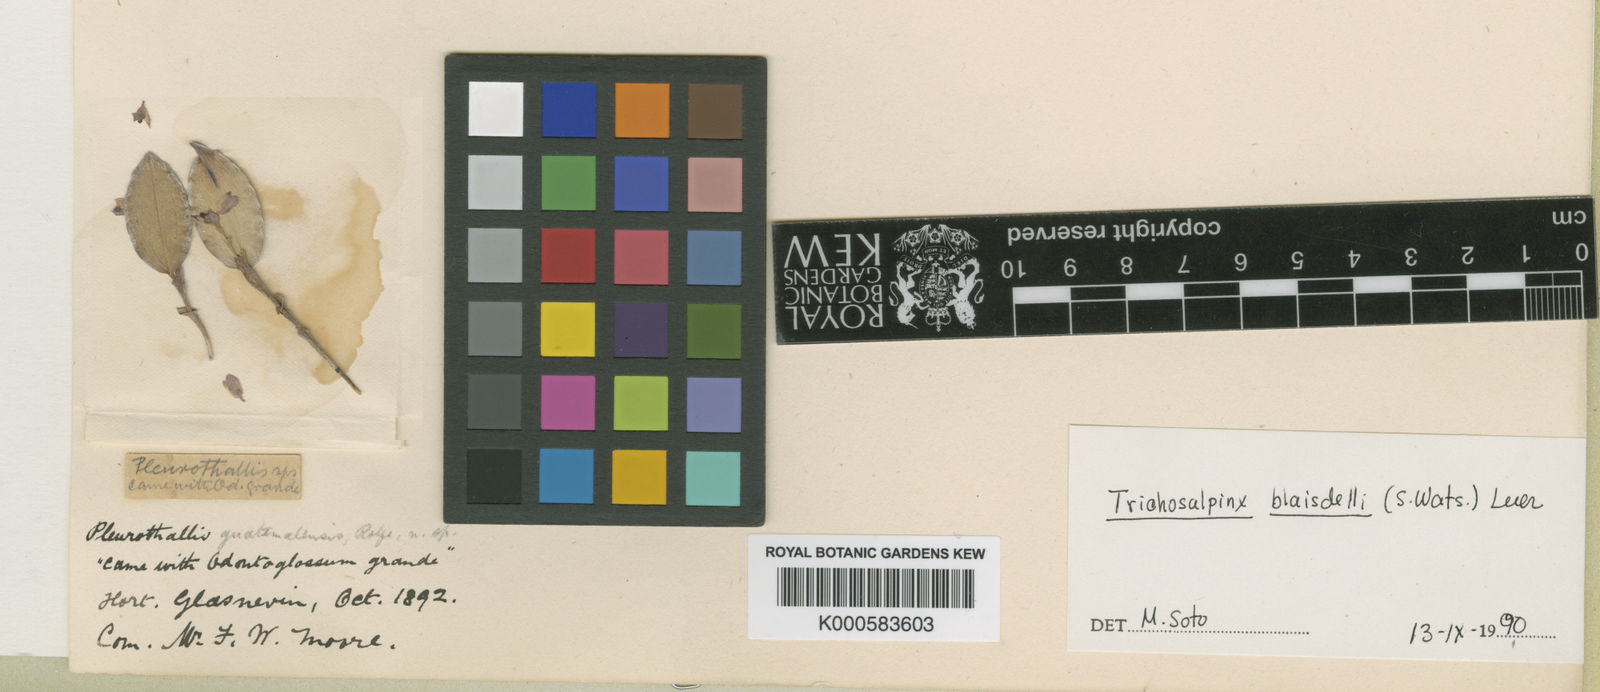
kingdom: Plantae
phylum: Tracheophyta
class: Liliopsida
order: Asparagales
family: Orchidaceae
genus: Trichosalpinx
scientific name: Trichosalpinx blaisdellii
